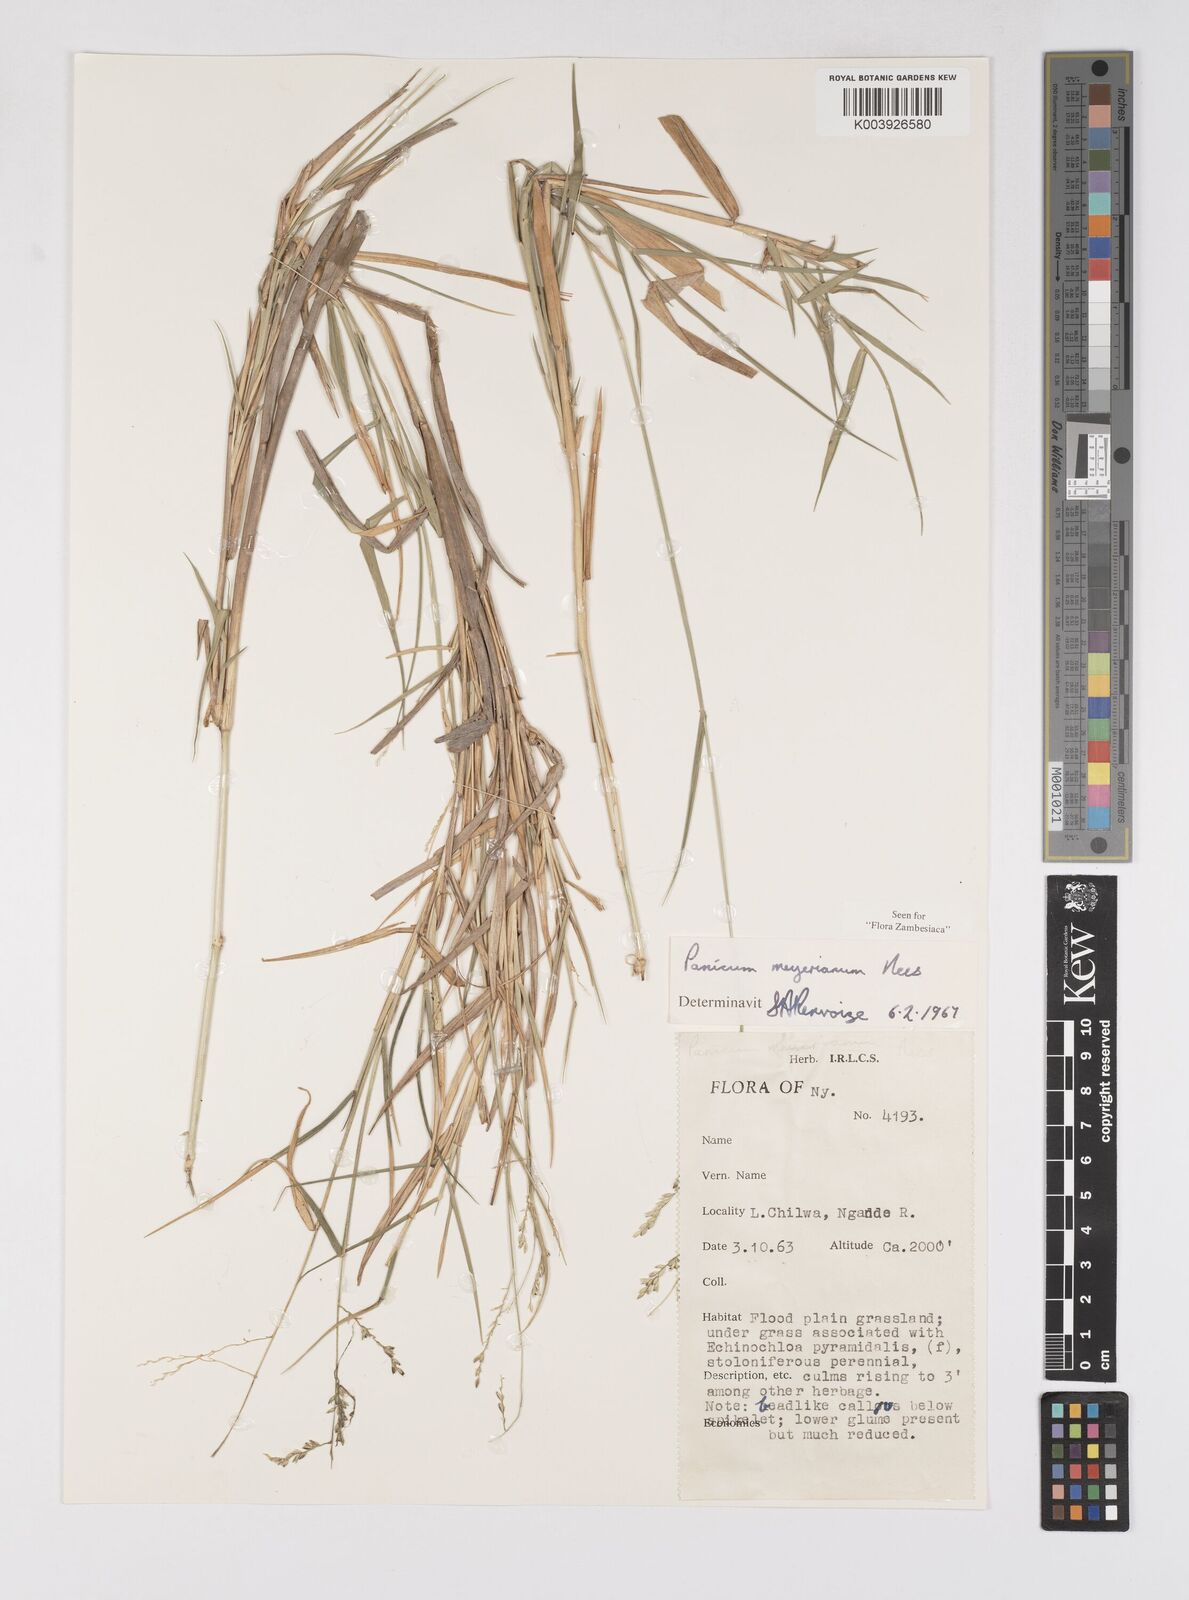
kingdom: Plantae
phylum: Tracheophyta
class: Liliopsida
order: Poales
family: Poaceae
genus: Eriochloa
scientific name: Eriochloa meyeriana
